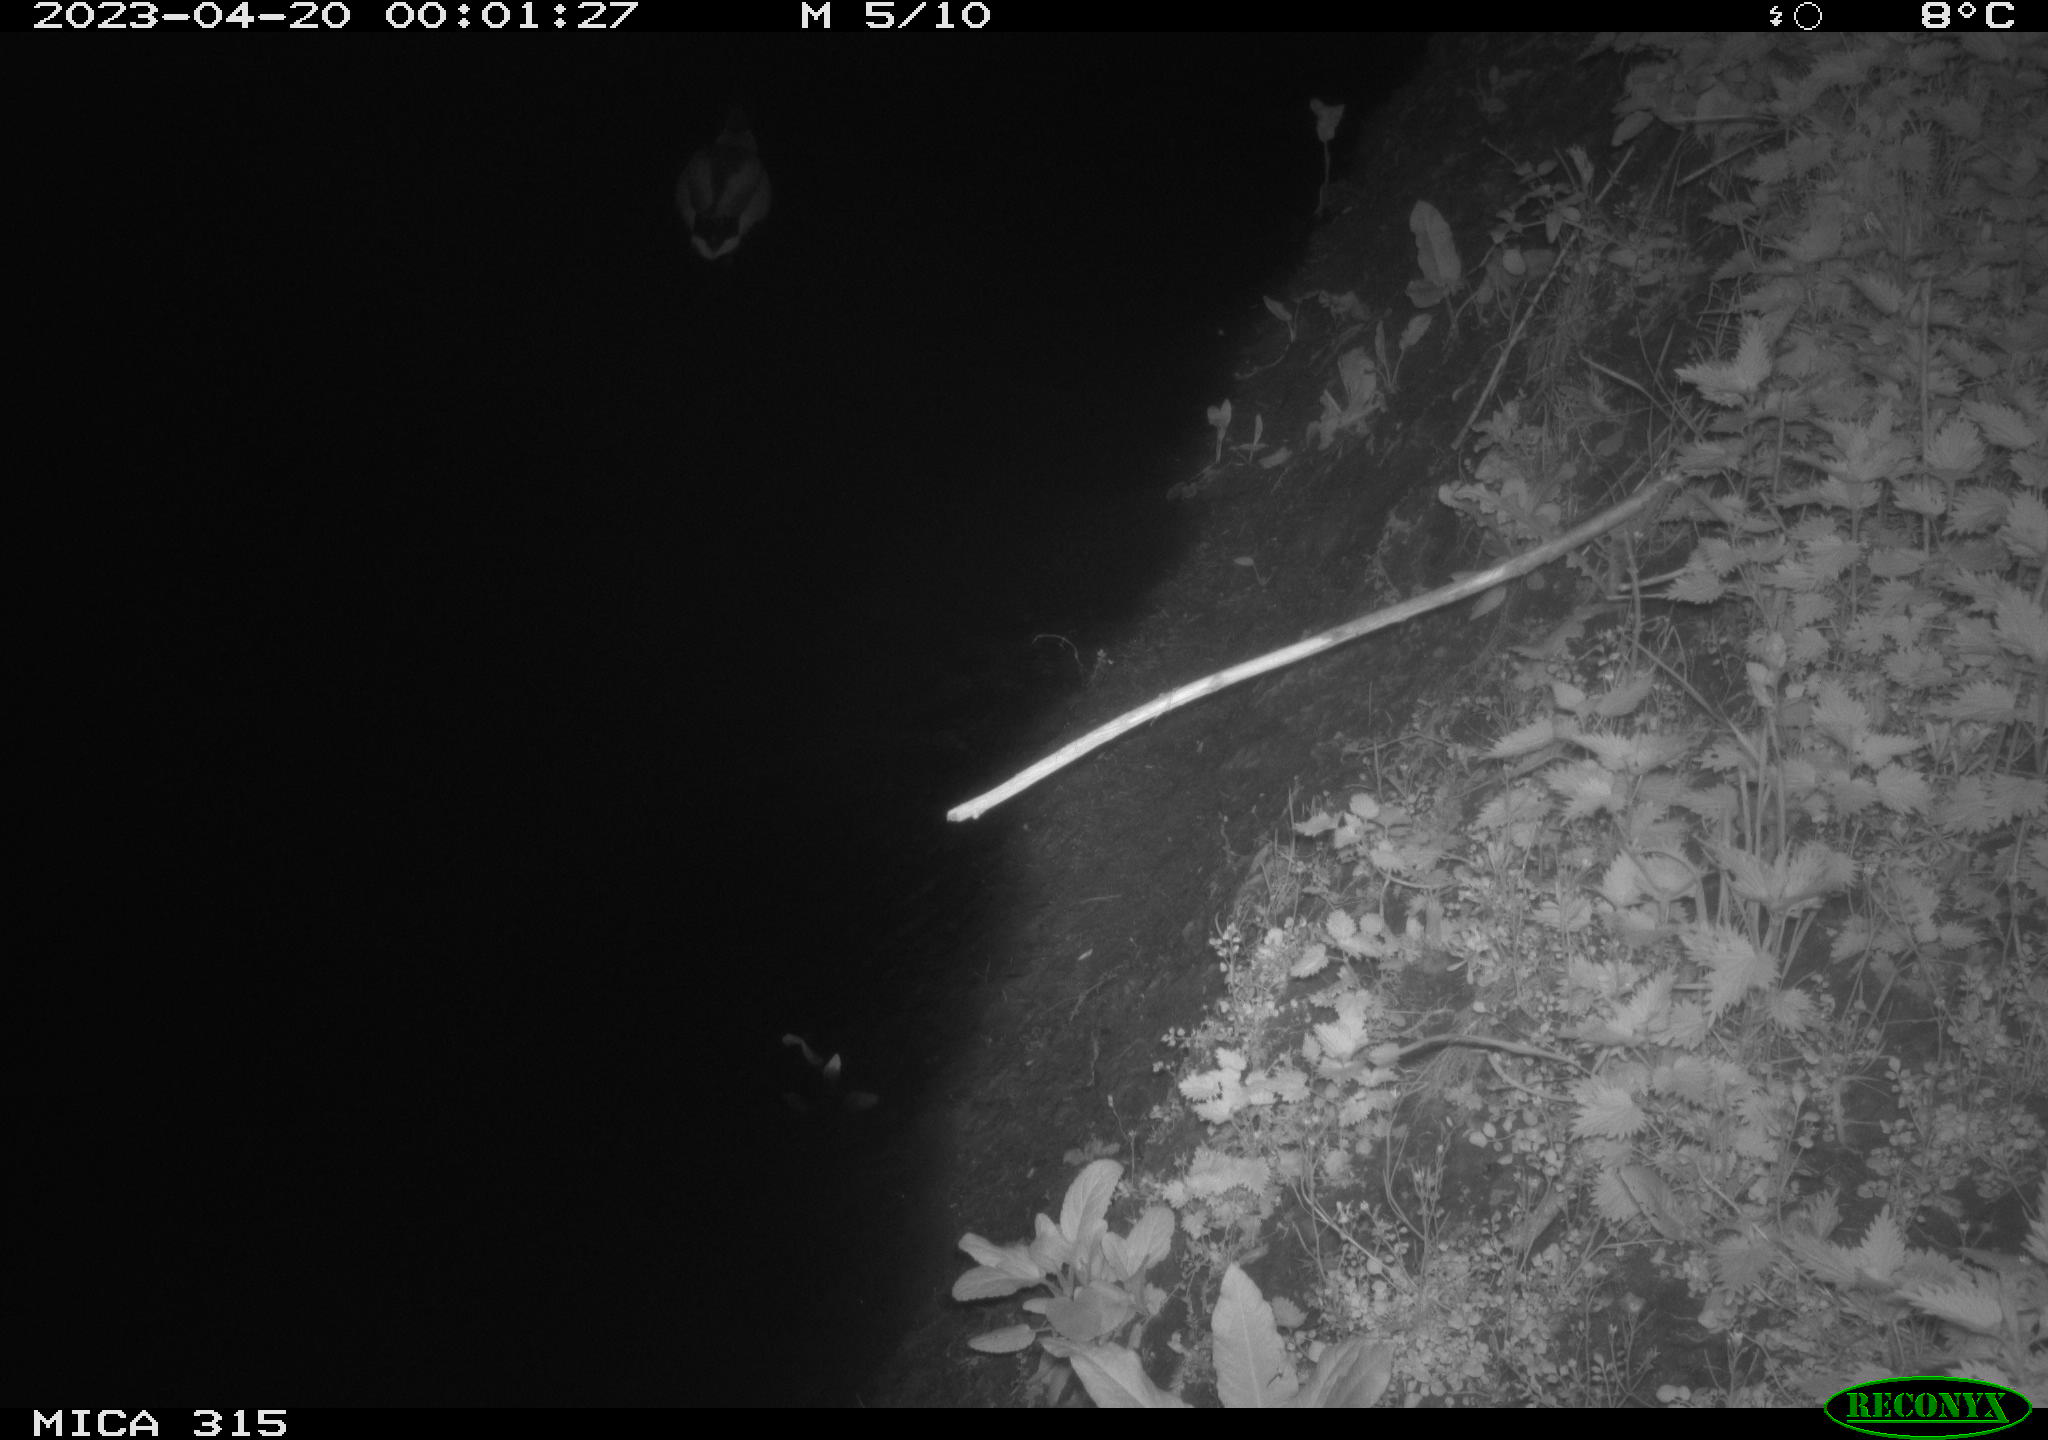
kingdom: Animalia
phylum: Chordata
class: Aves
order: Anseriformes
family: Anatidae
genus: Anas
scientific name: Anas
